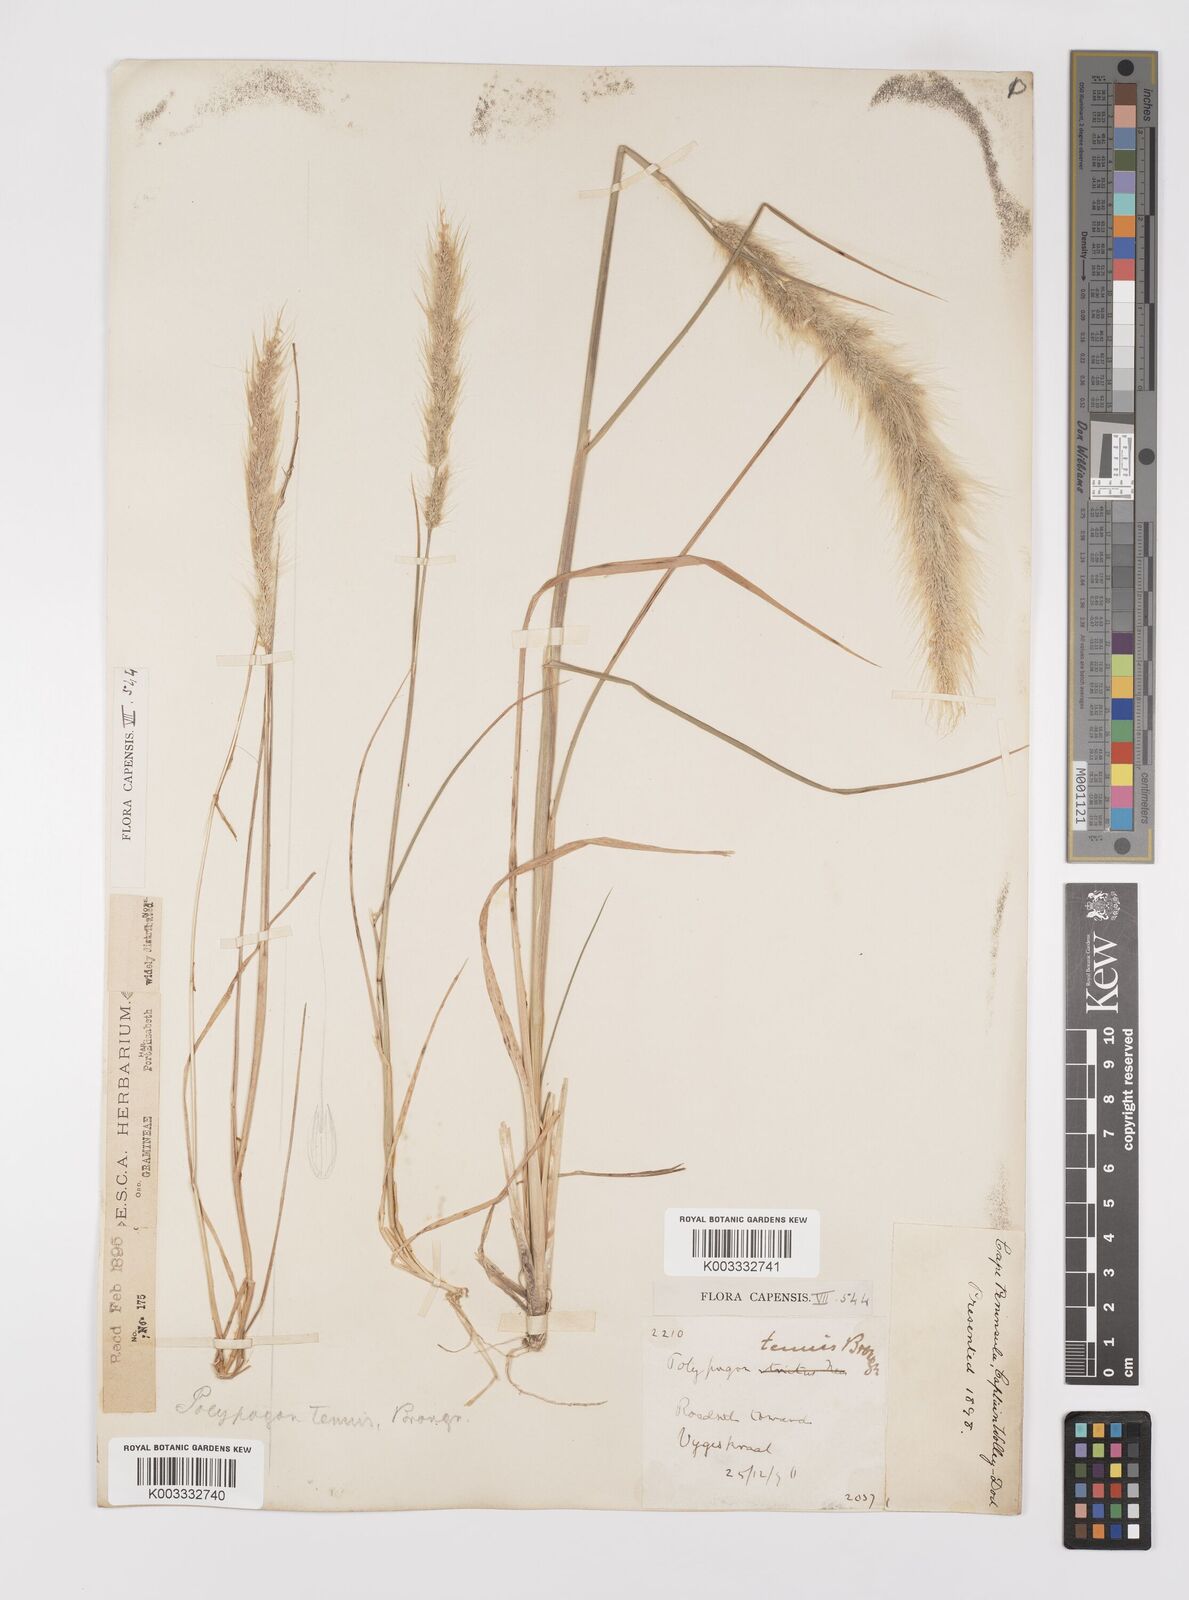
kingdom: Plantae
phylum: Tracheophyta
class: Liliopsida
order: Poales
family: Poaceae
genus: Polypogon
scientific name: Polypogon tenuis
